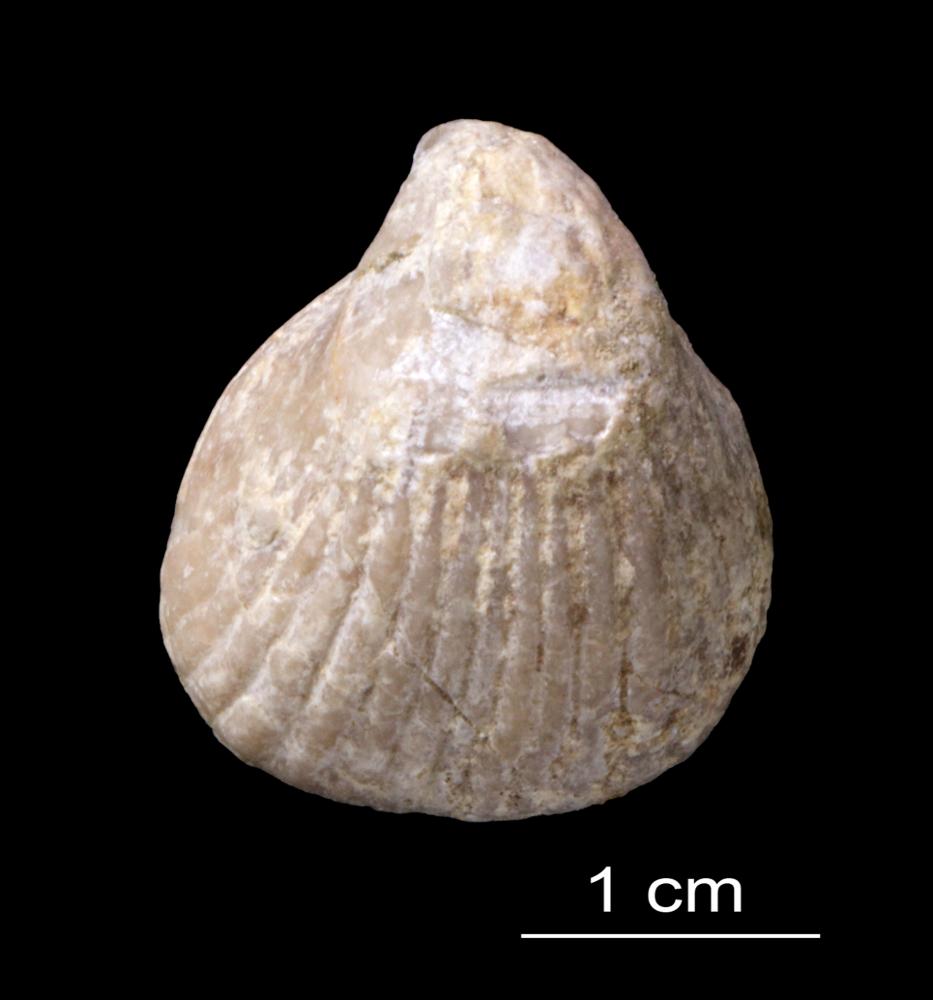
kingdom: Animalia
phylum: Brachiopoda
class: Rhynchonellata
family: Pentameridae
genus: Pentamerus
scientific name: Pentamerus
